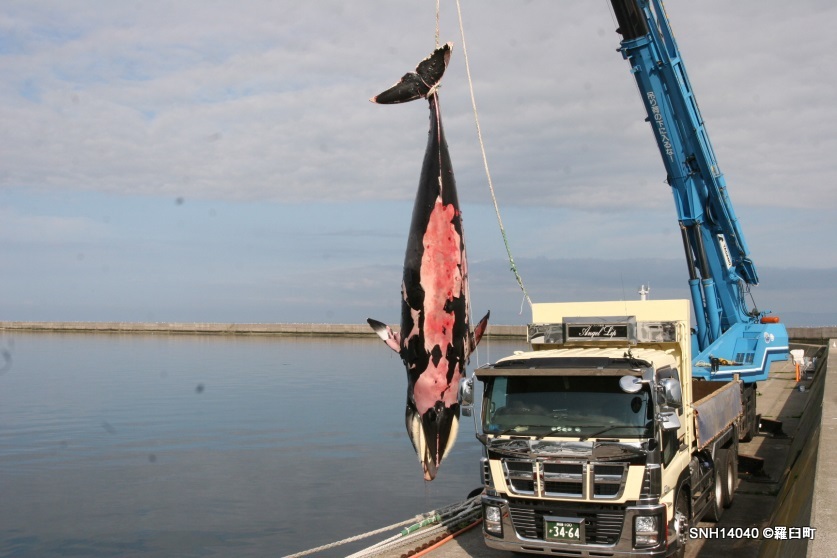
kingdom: Animalia
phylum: Chordata
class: Mammalia
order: Cetacea
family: Balaenopteridae
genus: Balaenoptera
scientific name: Balaenoptera acutorostrata
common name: Minke whale
